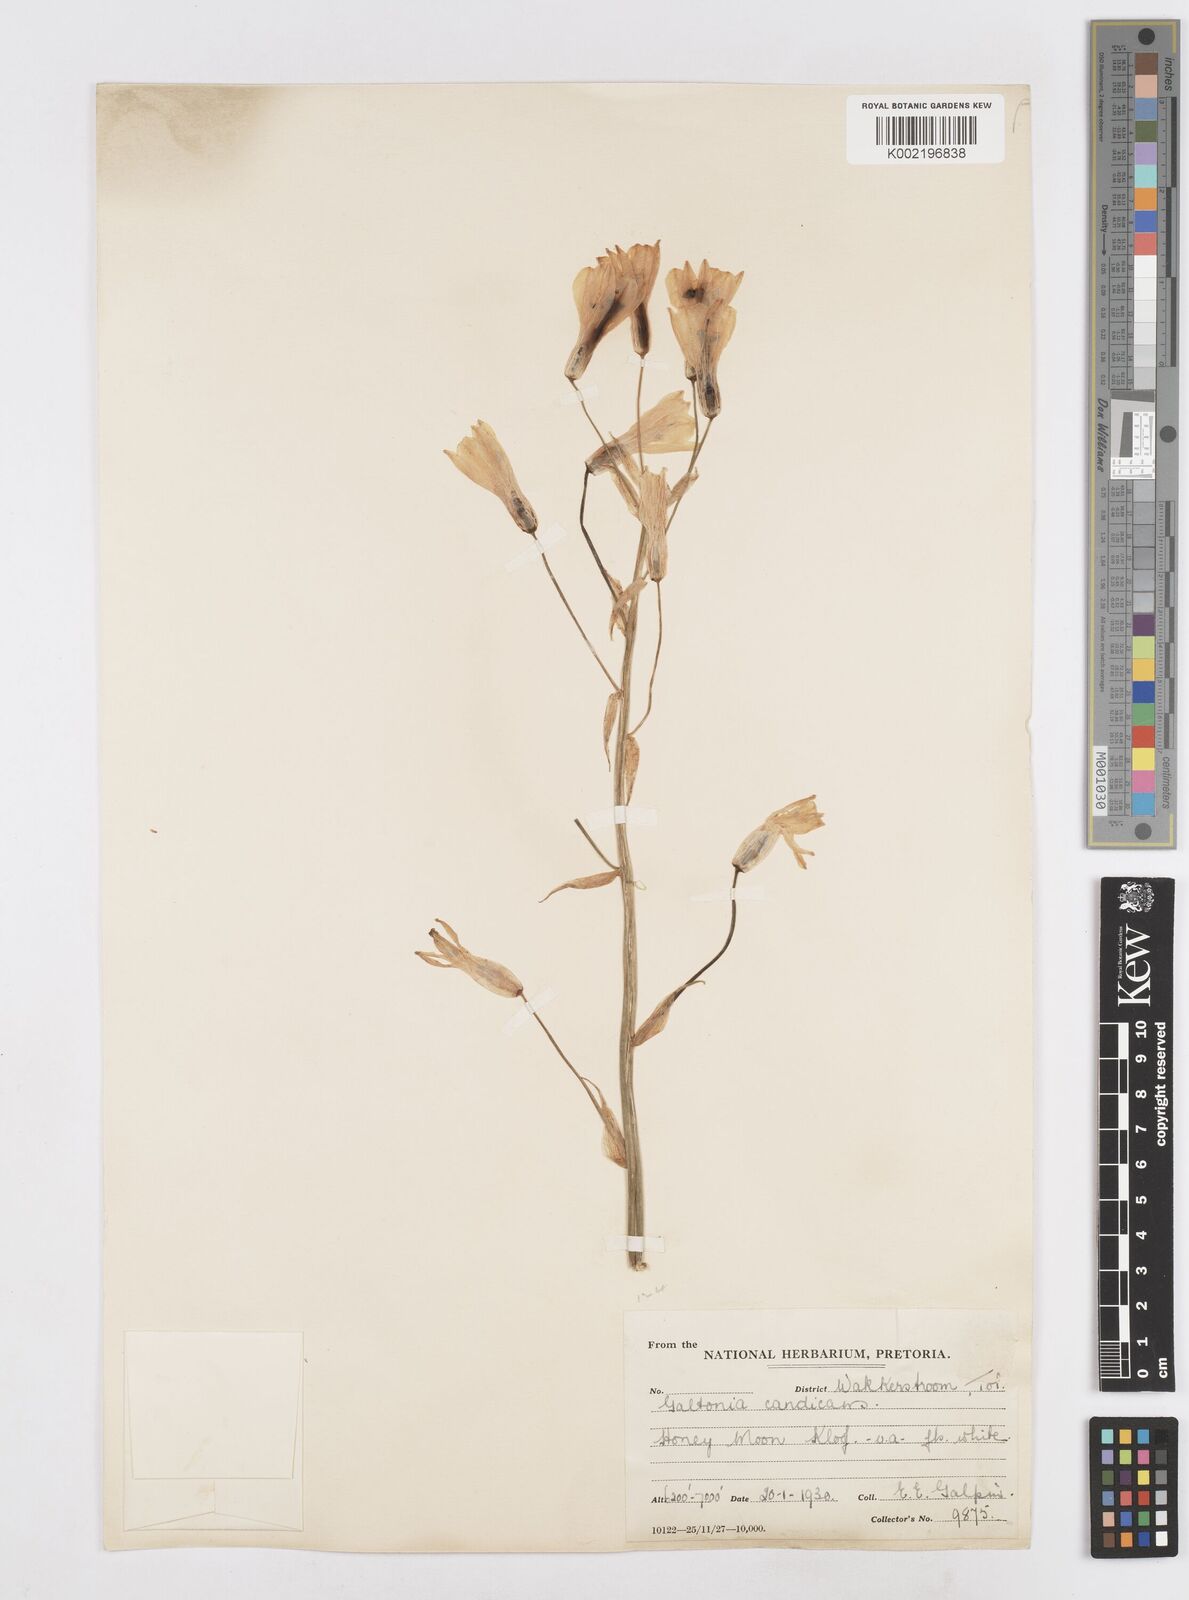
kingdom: Plantae
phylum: Tracheophyta
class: Liliopsida
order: Asparagales
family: Asparagaceae
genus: Ornithogalum
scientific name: Ornithogalum candicans
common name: Summer-hyacinth
